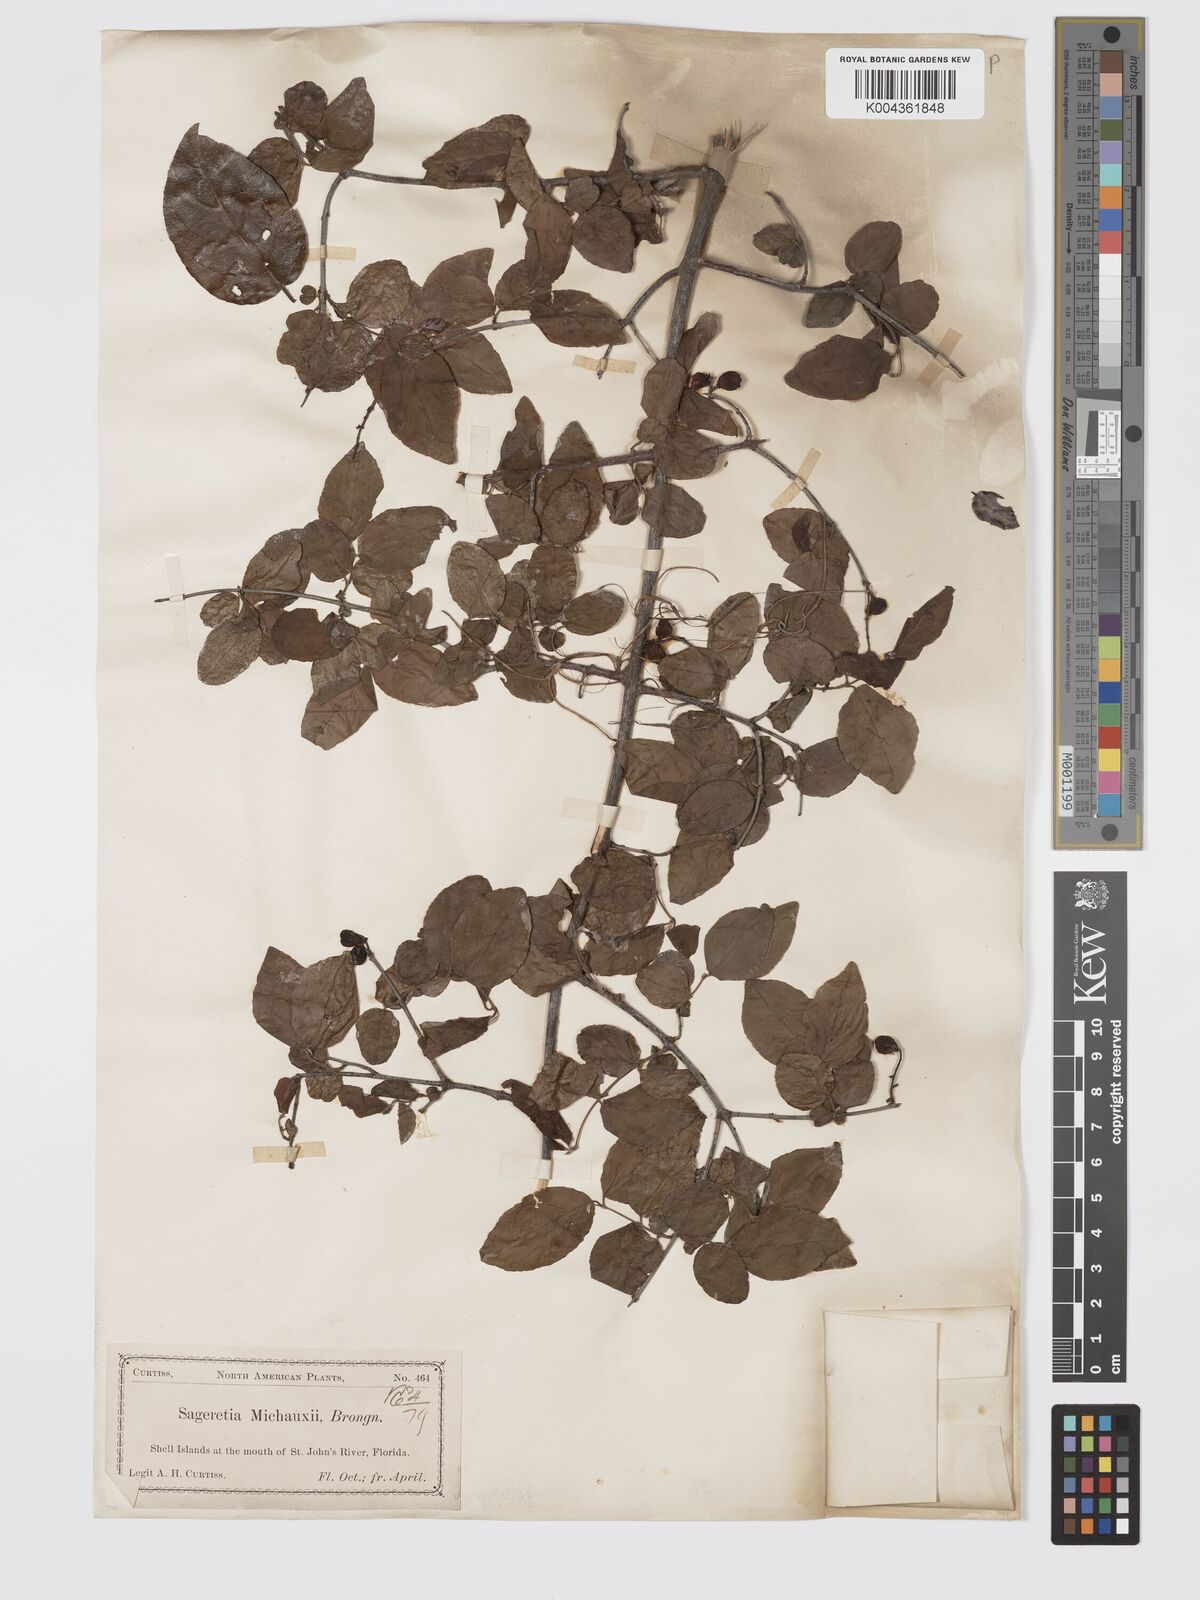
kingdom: Plantae
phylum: Tracheophyta
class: Magnoliopsida
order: Rosales
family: Rhamnaceae
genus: Sageretia
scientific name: Sageretia
